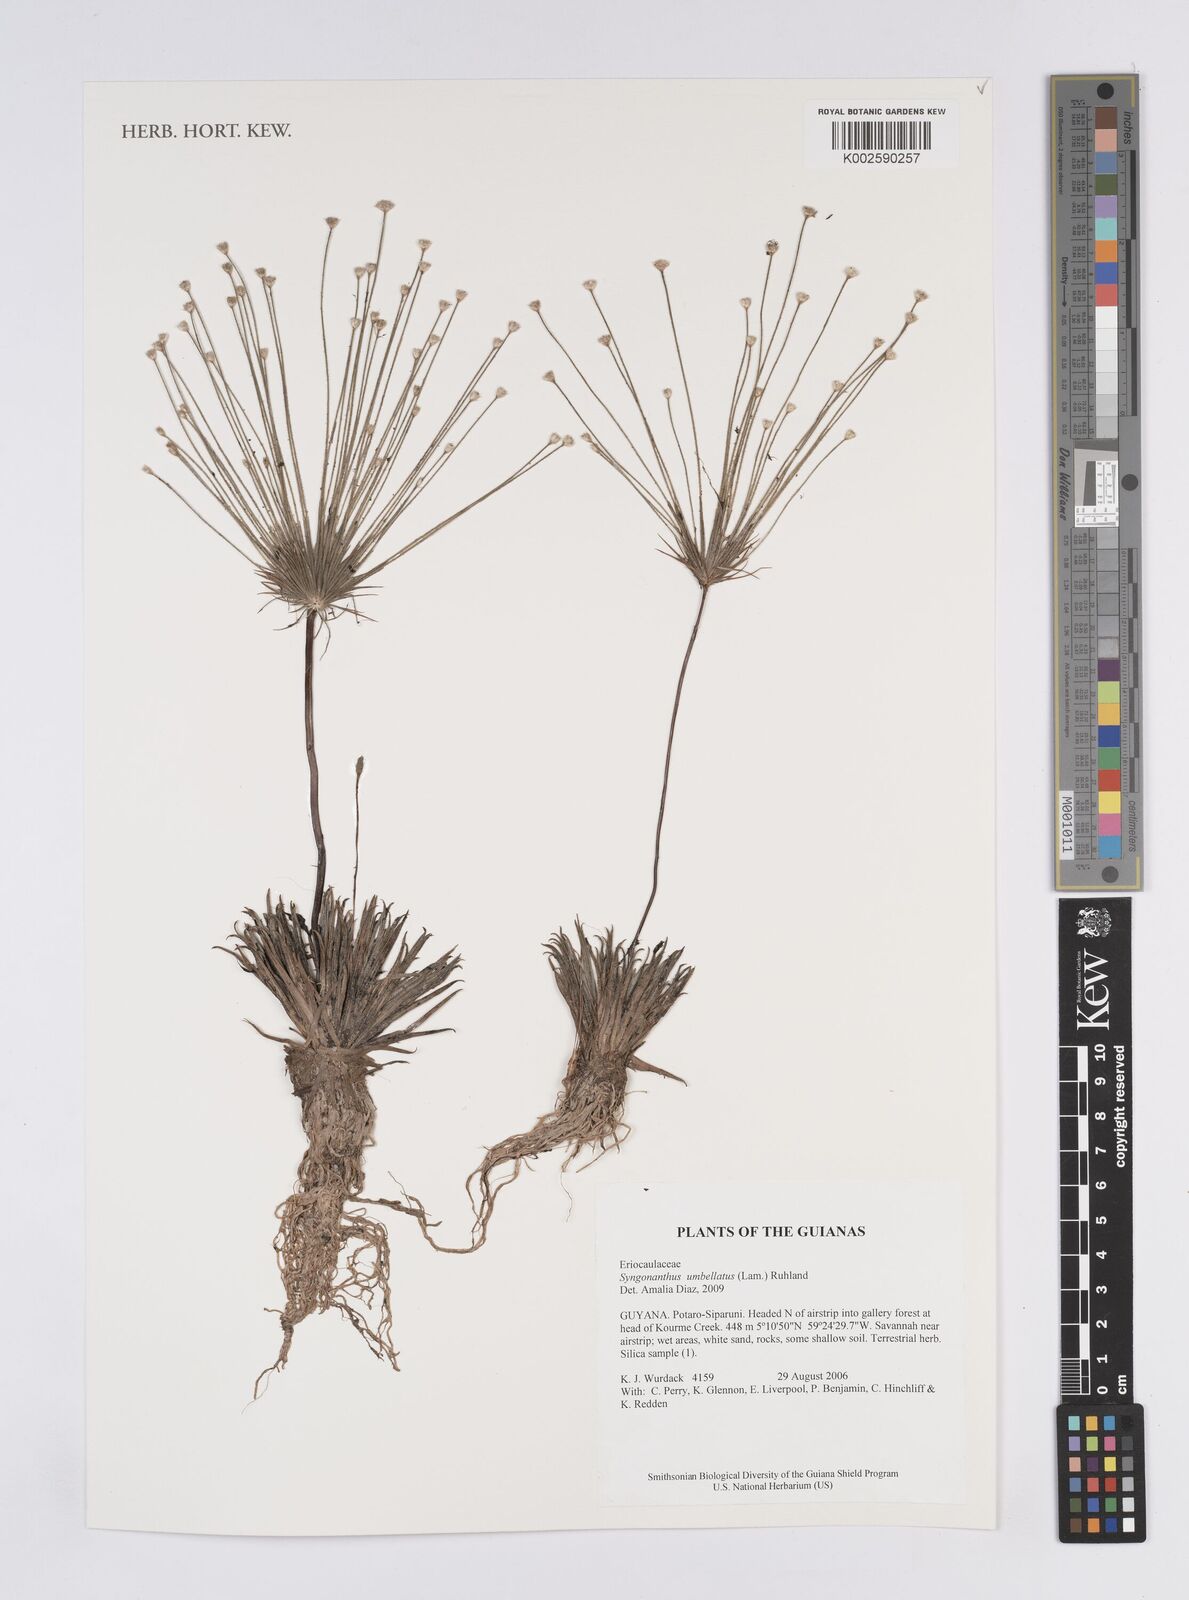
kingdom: Plantae
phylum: Tracheophyta
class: Liliopsida
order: Poales
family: Eriocaulaceae
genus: Syngonanthus
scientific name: Syngonanthus umbellatus
